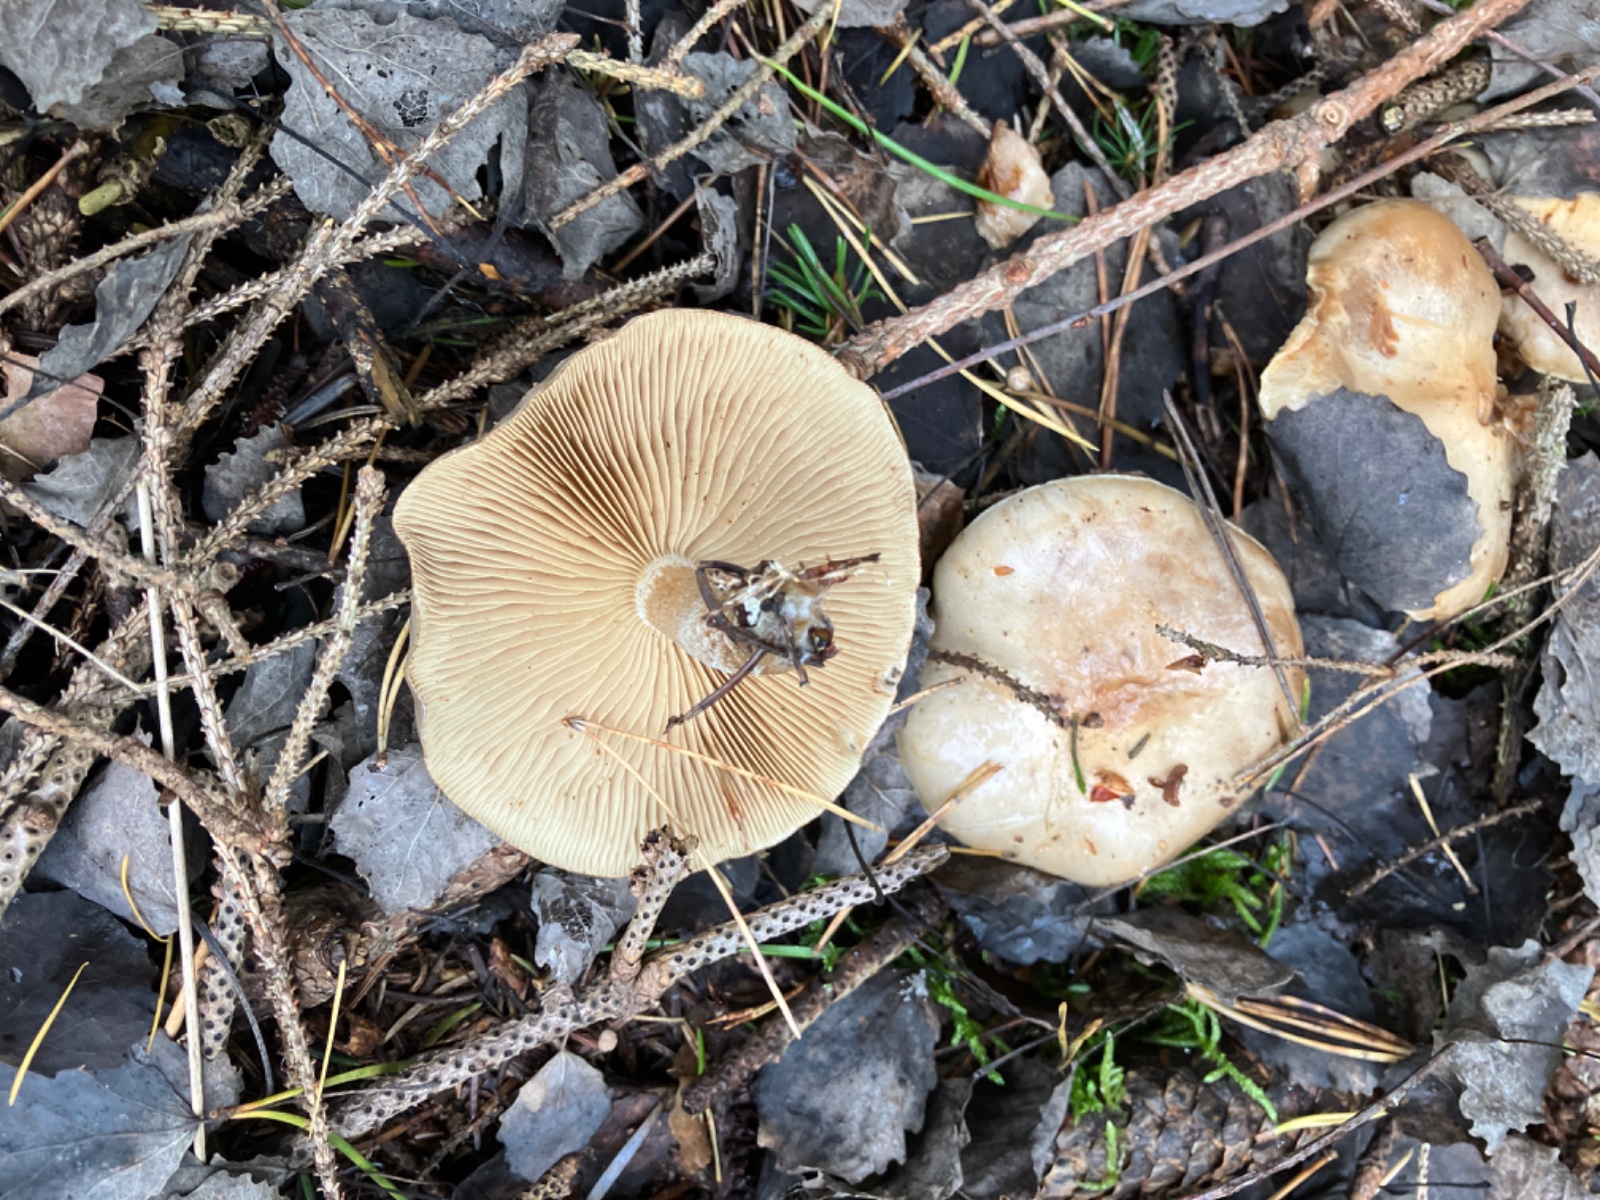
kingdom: Fungi
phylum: Basidiomycota
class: Agaricomycetes
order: Agaricales
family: Strophariaceae
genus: Pholiota
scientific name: Pholiota lenta
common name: løv-skælhat
